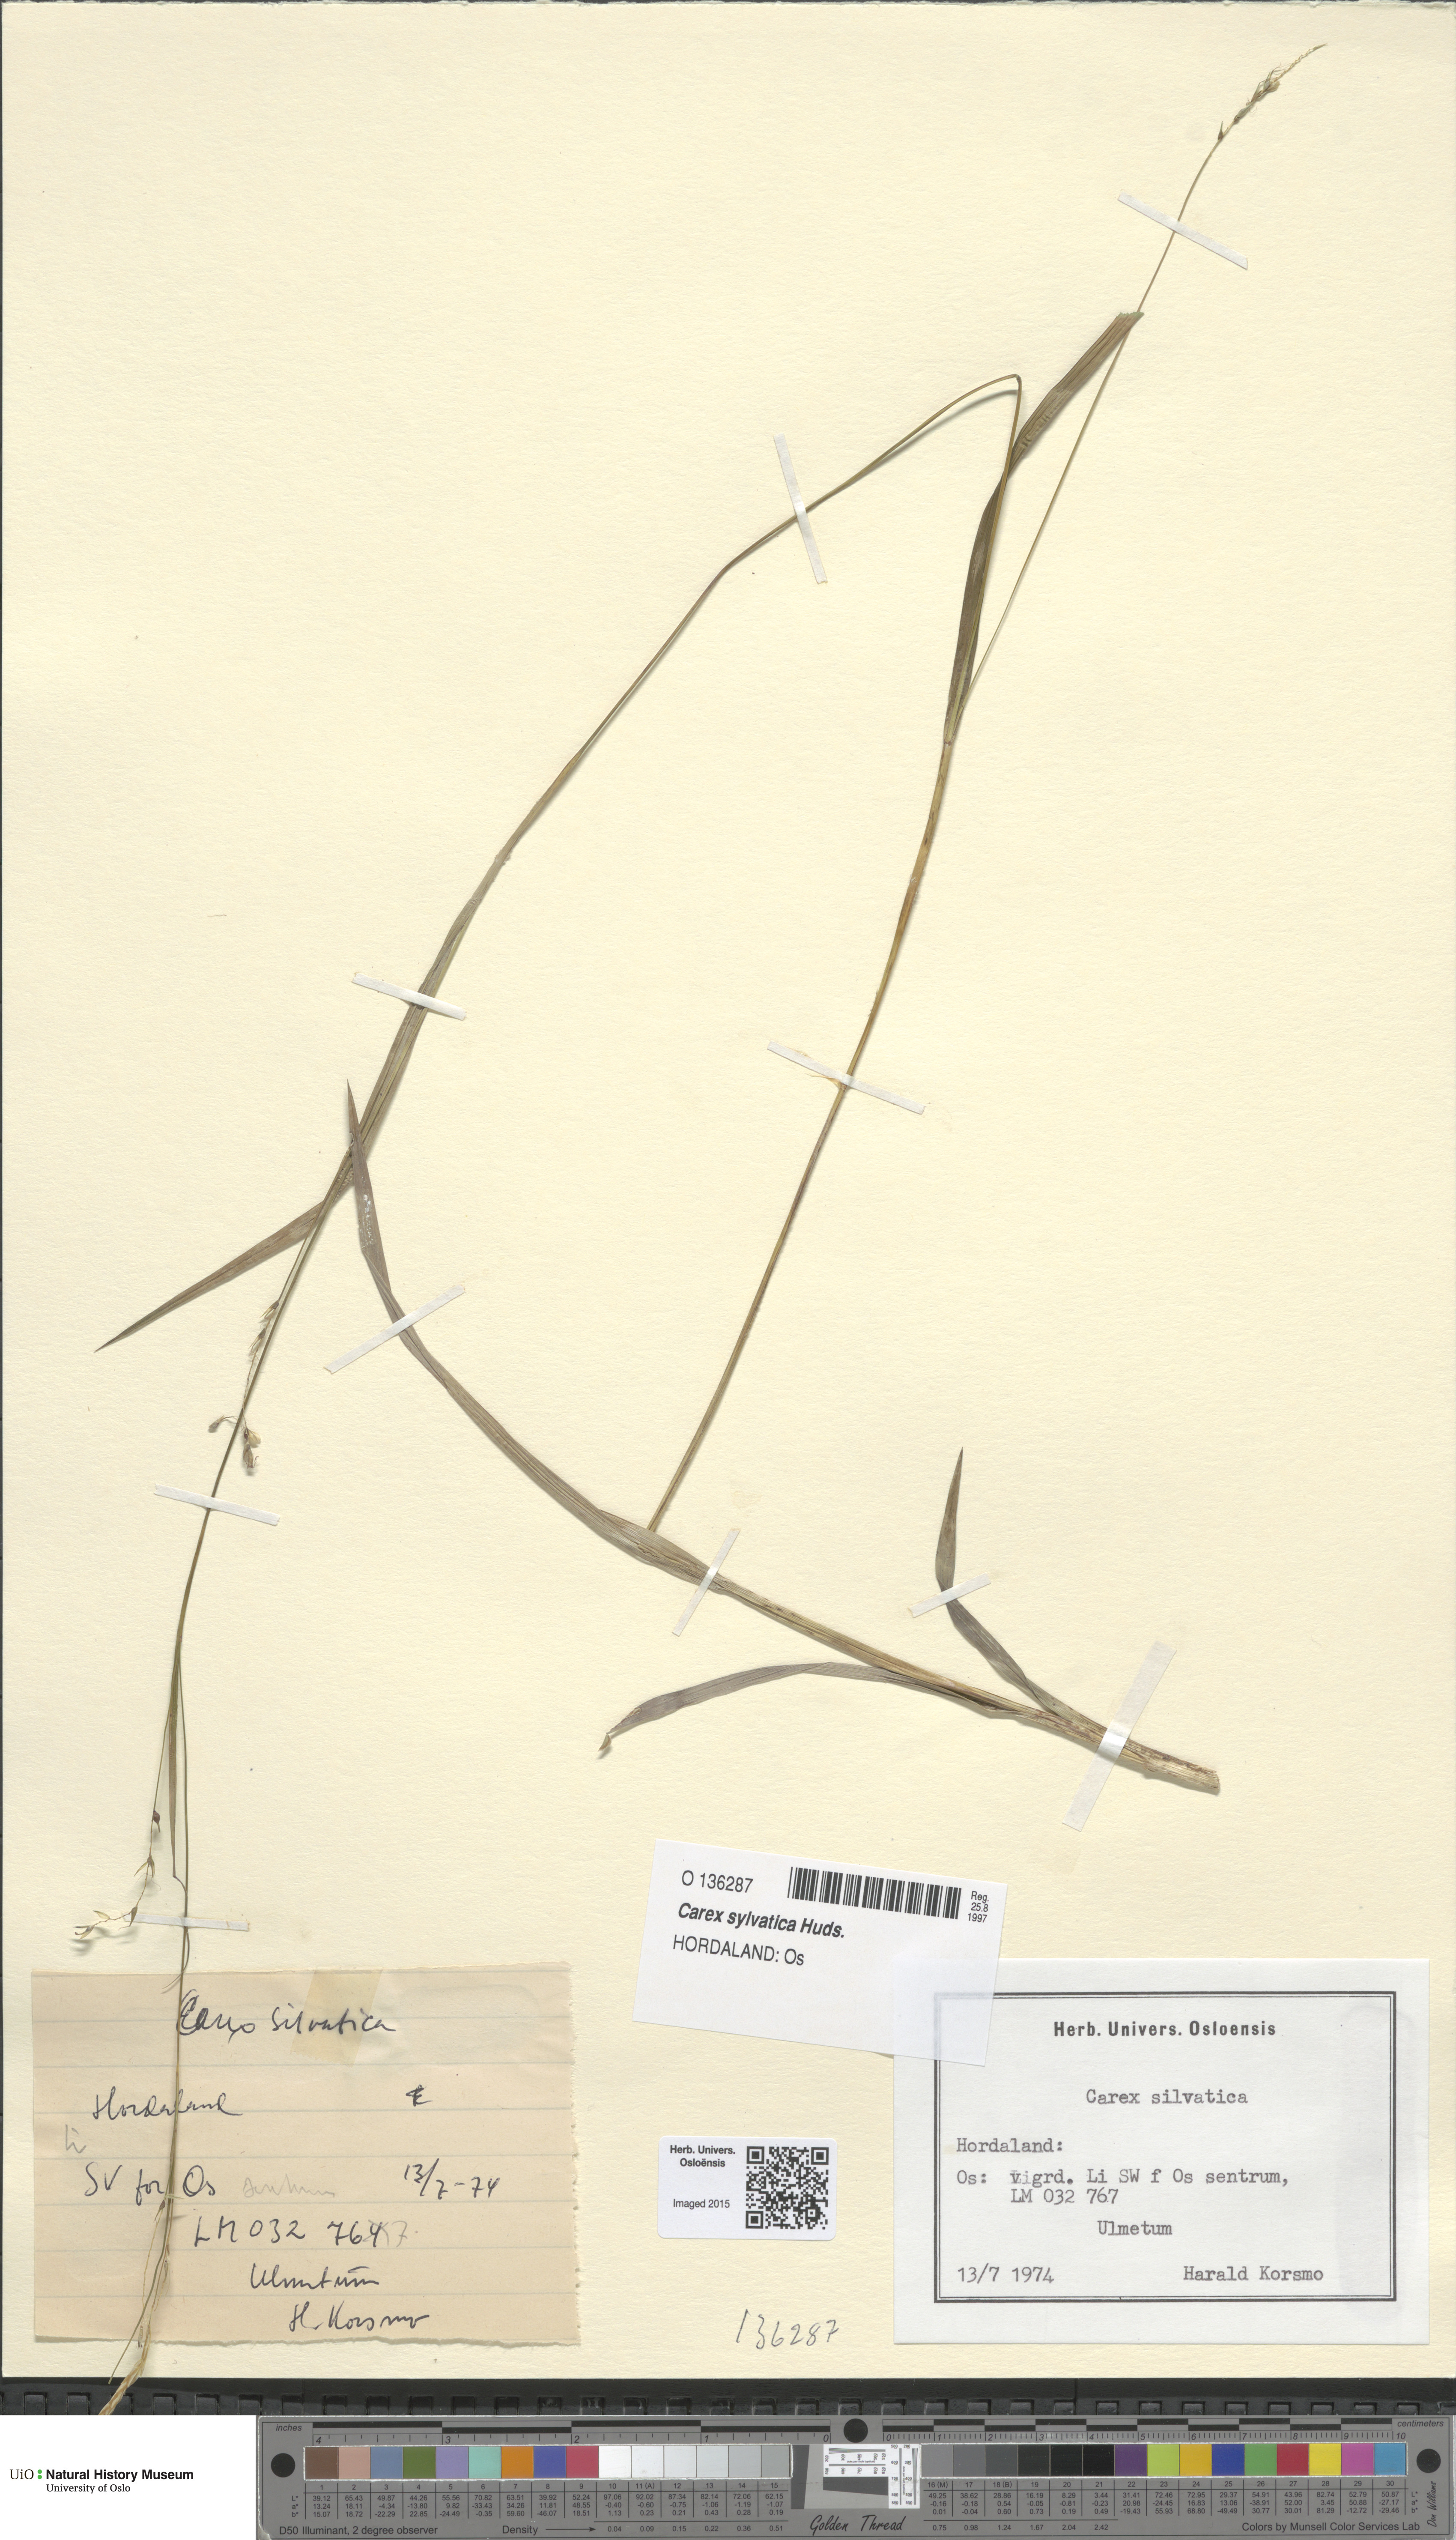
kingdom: Plantae
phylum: Tracheophyta
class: Liliopsida
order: Poales
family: Cyperaceae
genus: Carex
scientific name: Carex sylvatica
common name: Wood-sedge
